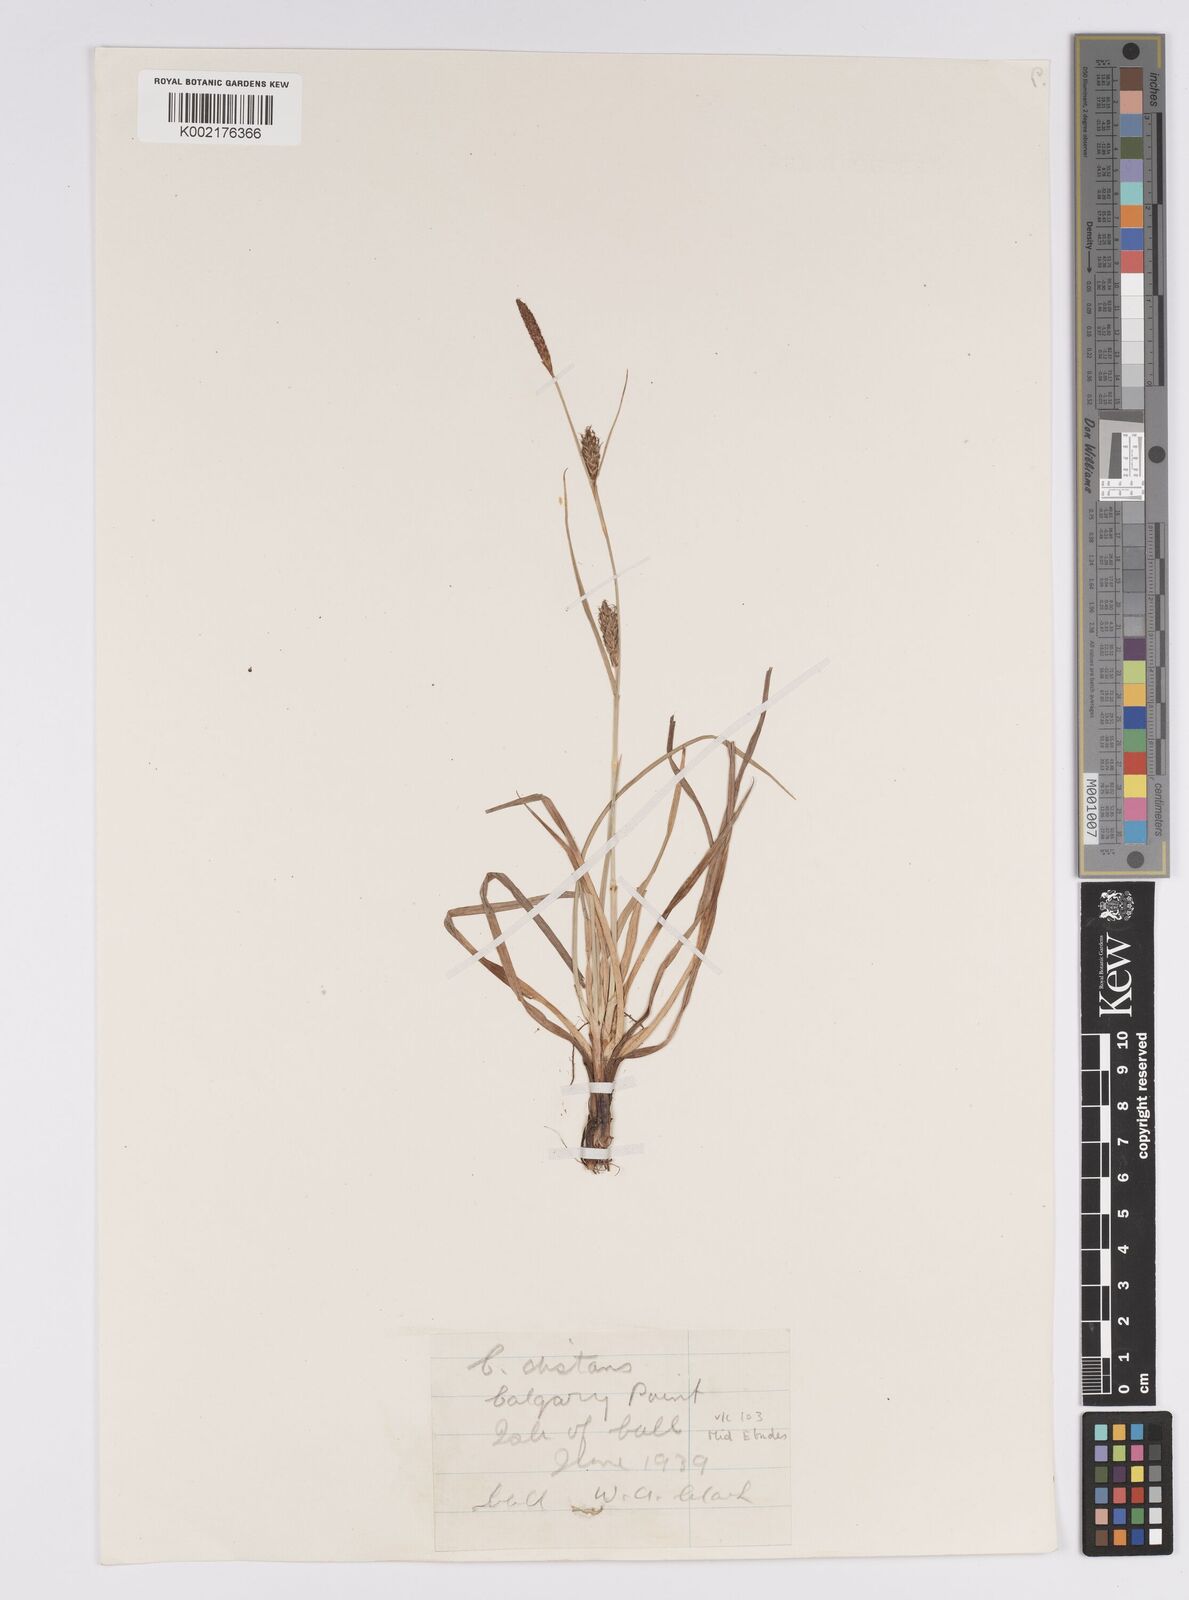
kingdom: Plantae
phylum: Tracheophyta
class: Liliopsida
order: Poales
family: Cyperaceae
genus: Carex
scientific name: Carex distans
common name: Distant sedge
